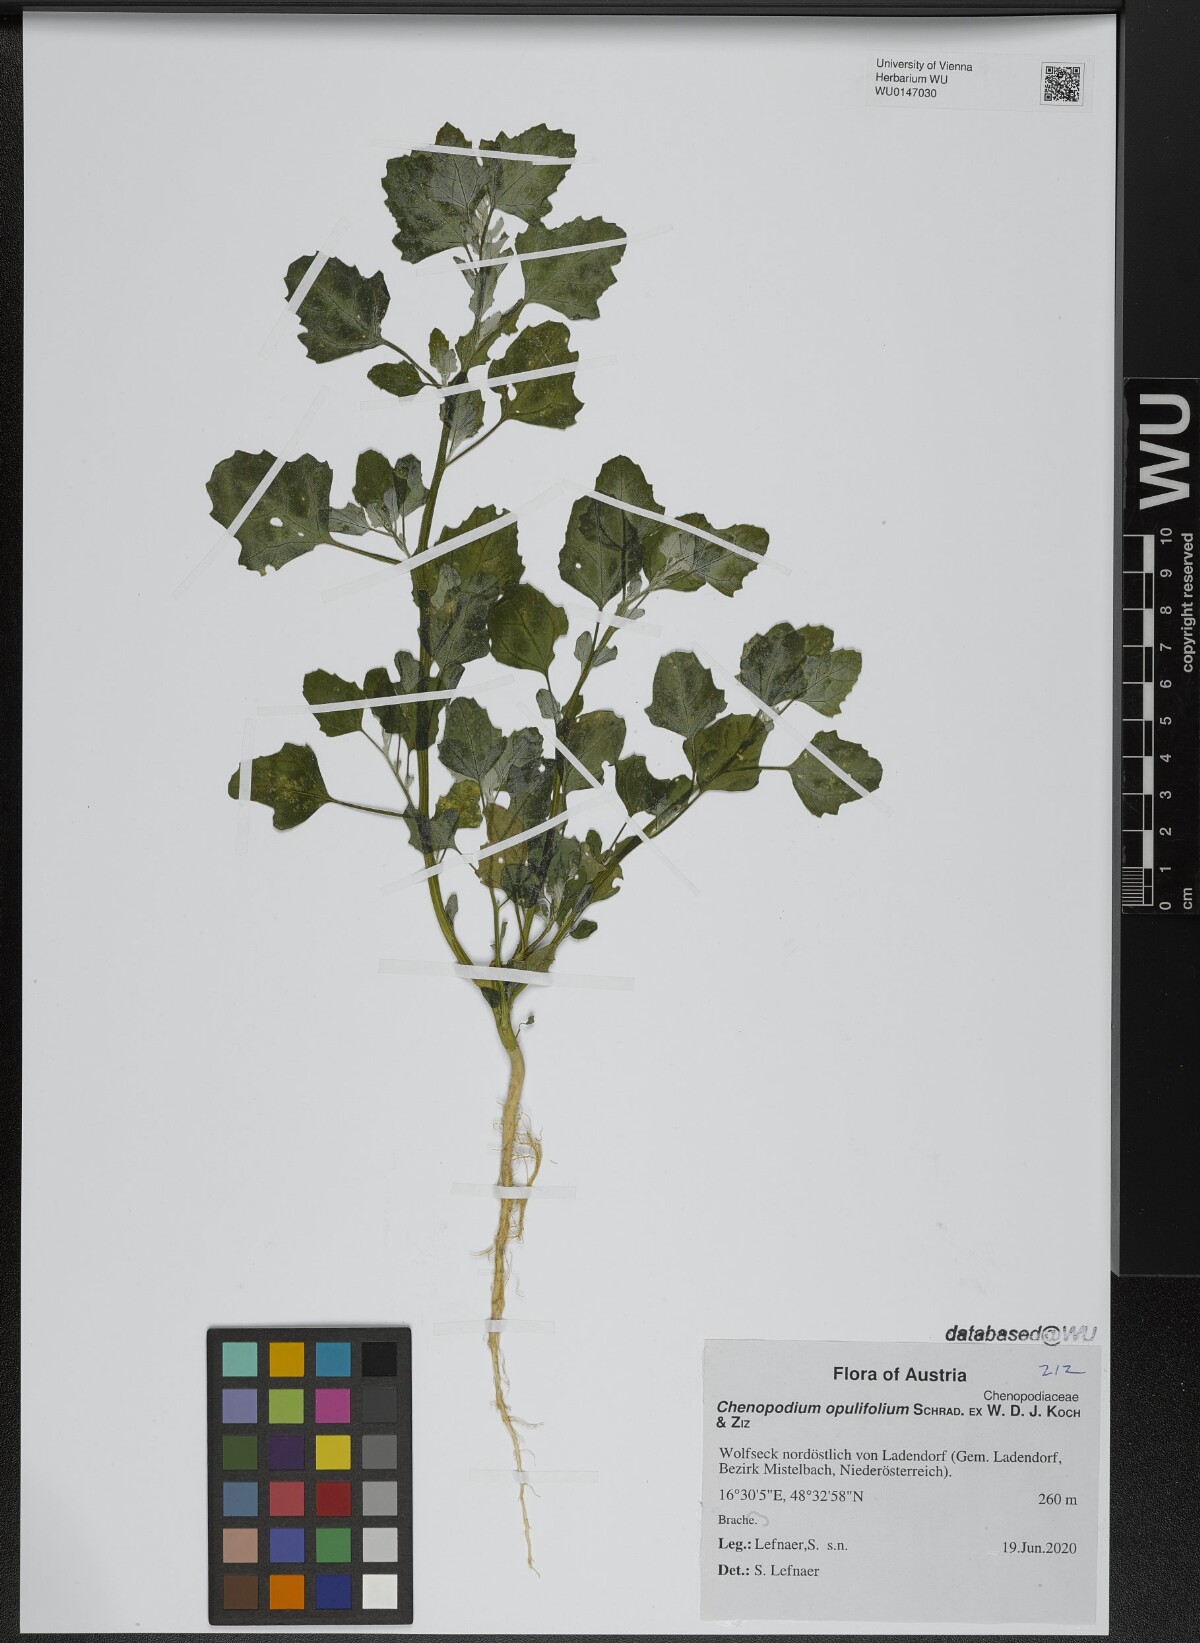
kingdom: Plantae
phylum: Tracheophyta
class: Magnoliopsida
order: Caryophyllales
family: Amaranthaceae
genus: Chenopodium
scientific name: Chenopodium opulifolium
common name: Grey goosefoot
